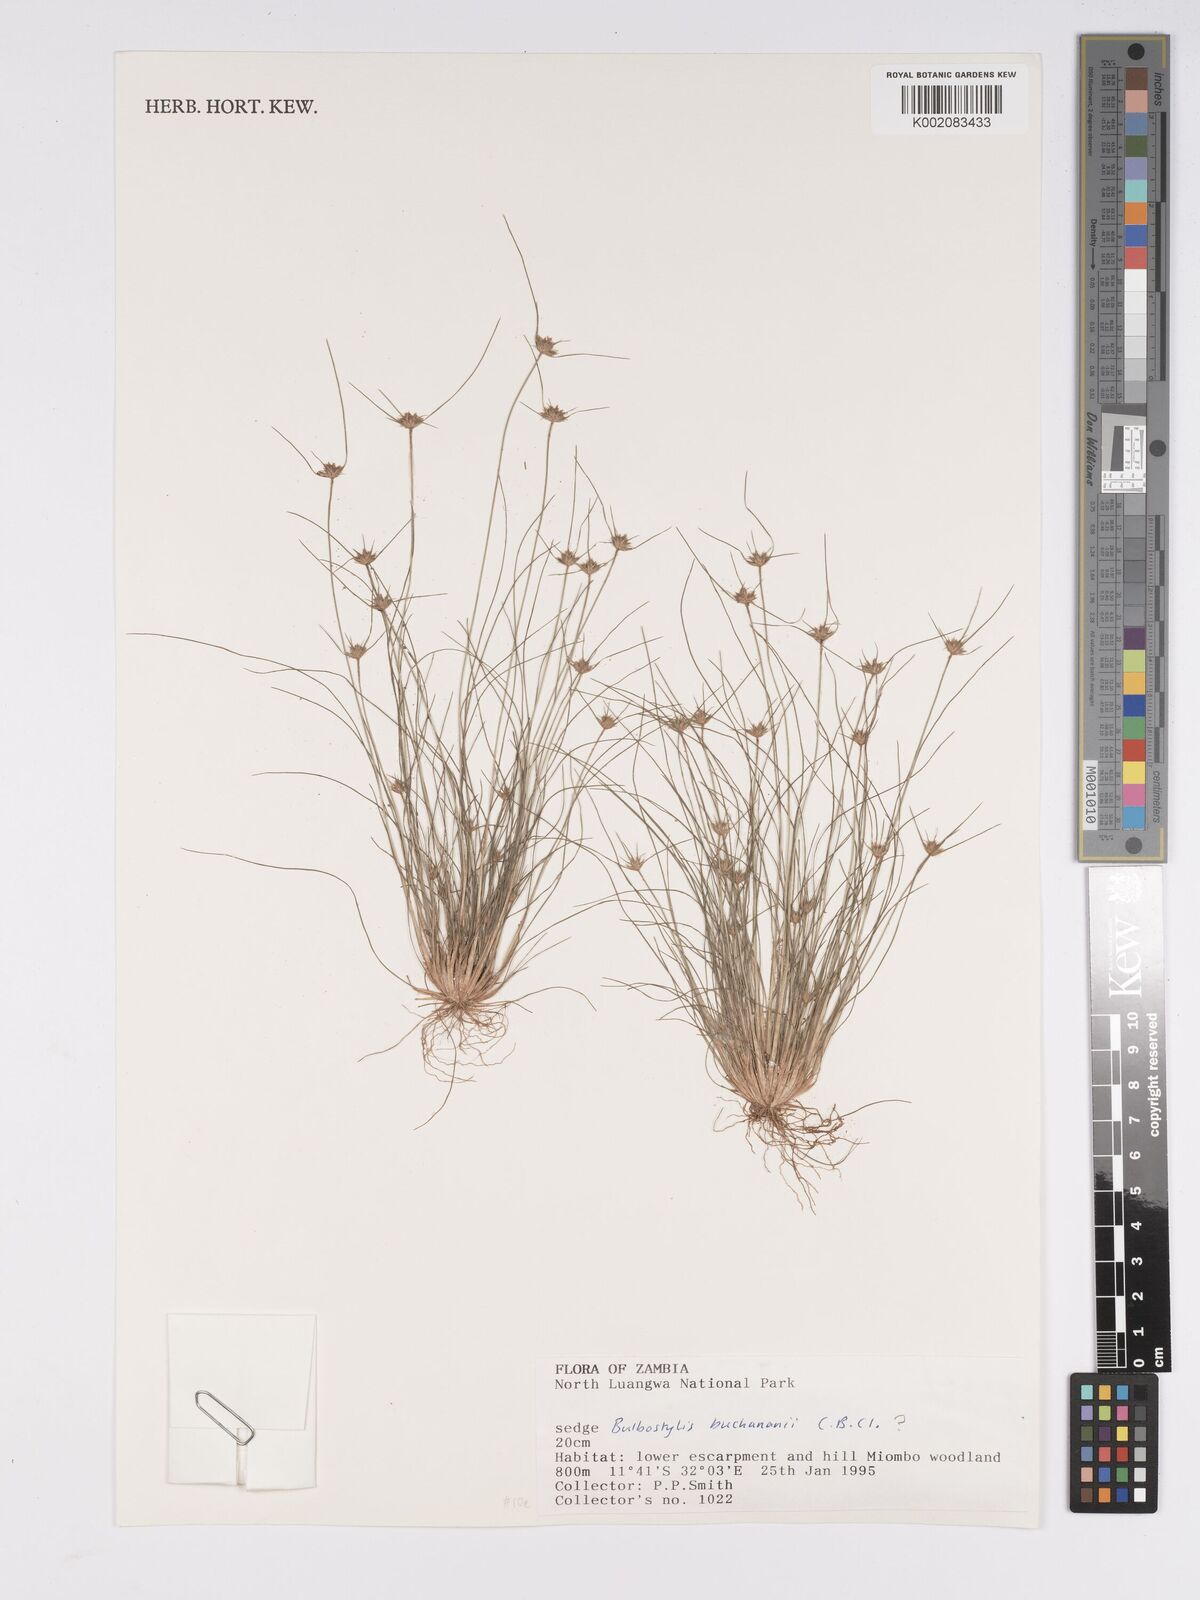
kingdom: Plantae
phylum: Tracheophyta
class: Liliopsida
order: Poales
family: Cyperaceae
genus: Bulbostylis
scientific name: Bulbostylis buchananii
